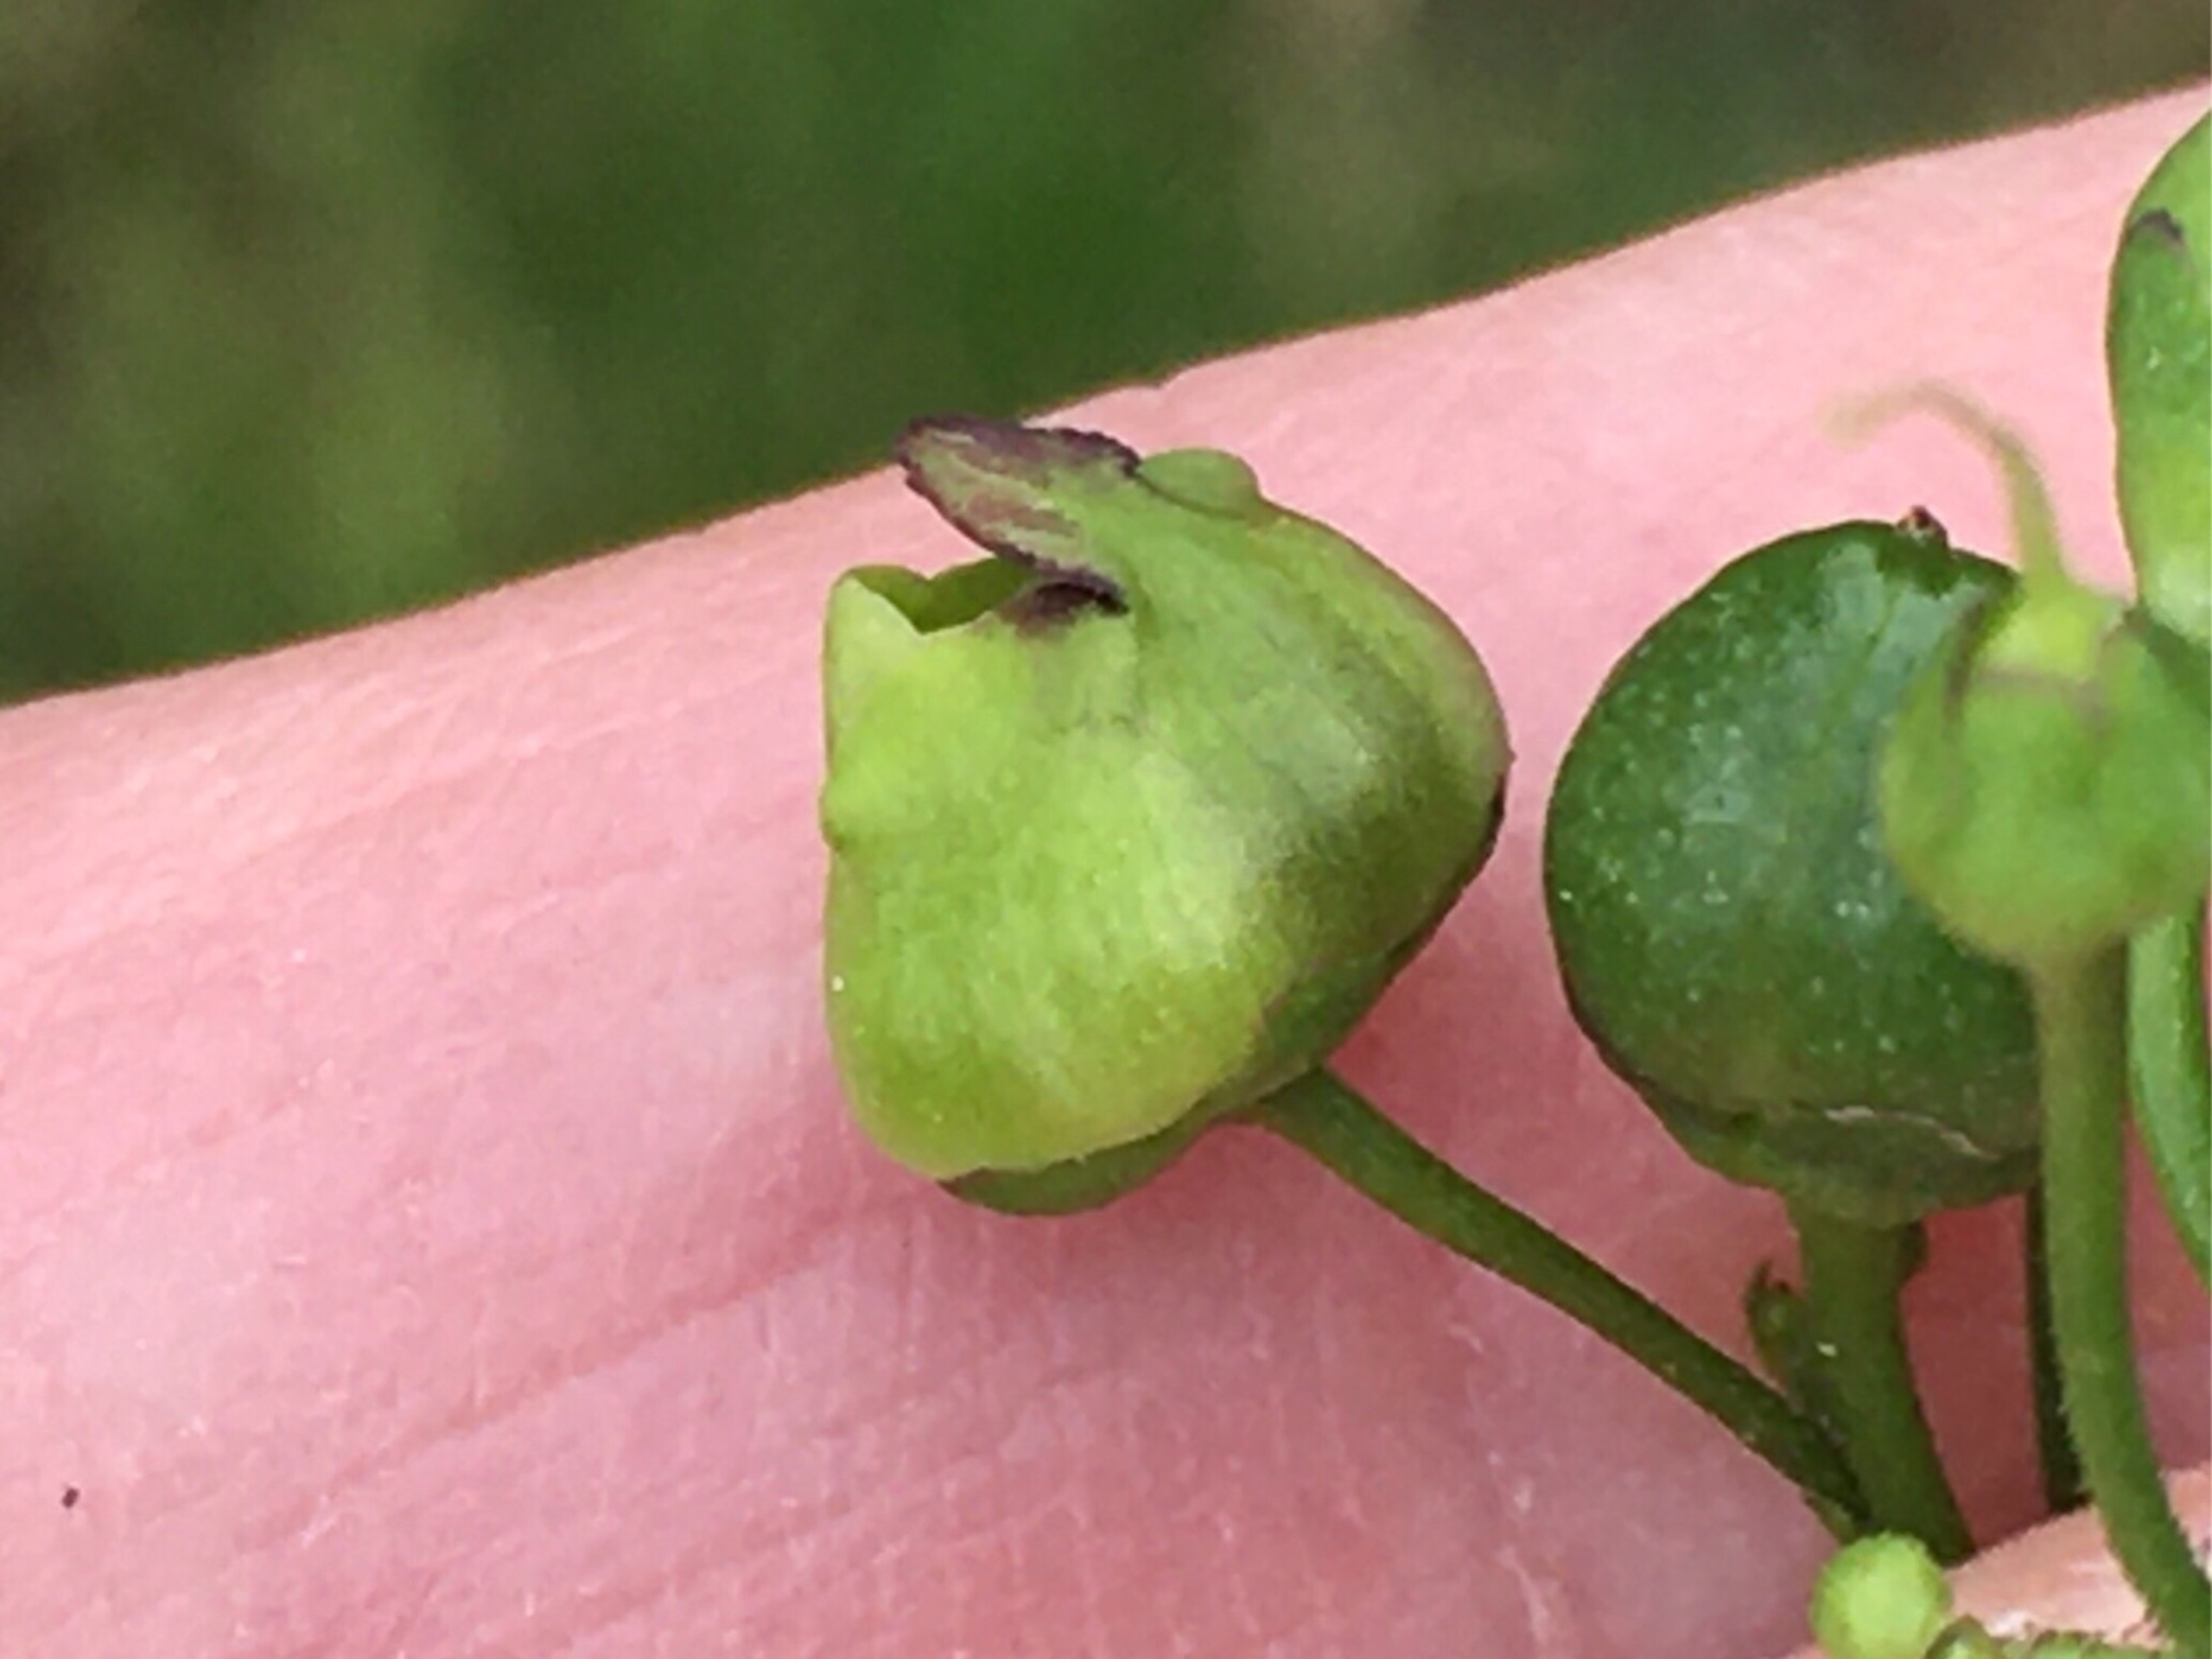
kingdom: Animalia
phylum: Arthropoda
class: Insecta
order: Diptera
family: Cecidomyiidae
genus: Contarinia
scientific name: Contarinia scrophulariae
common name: Brunrodsgalmyg
